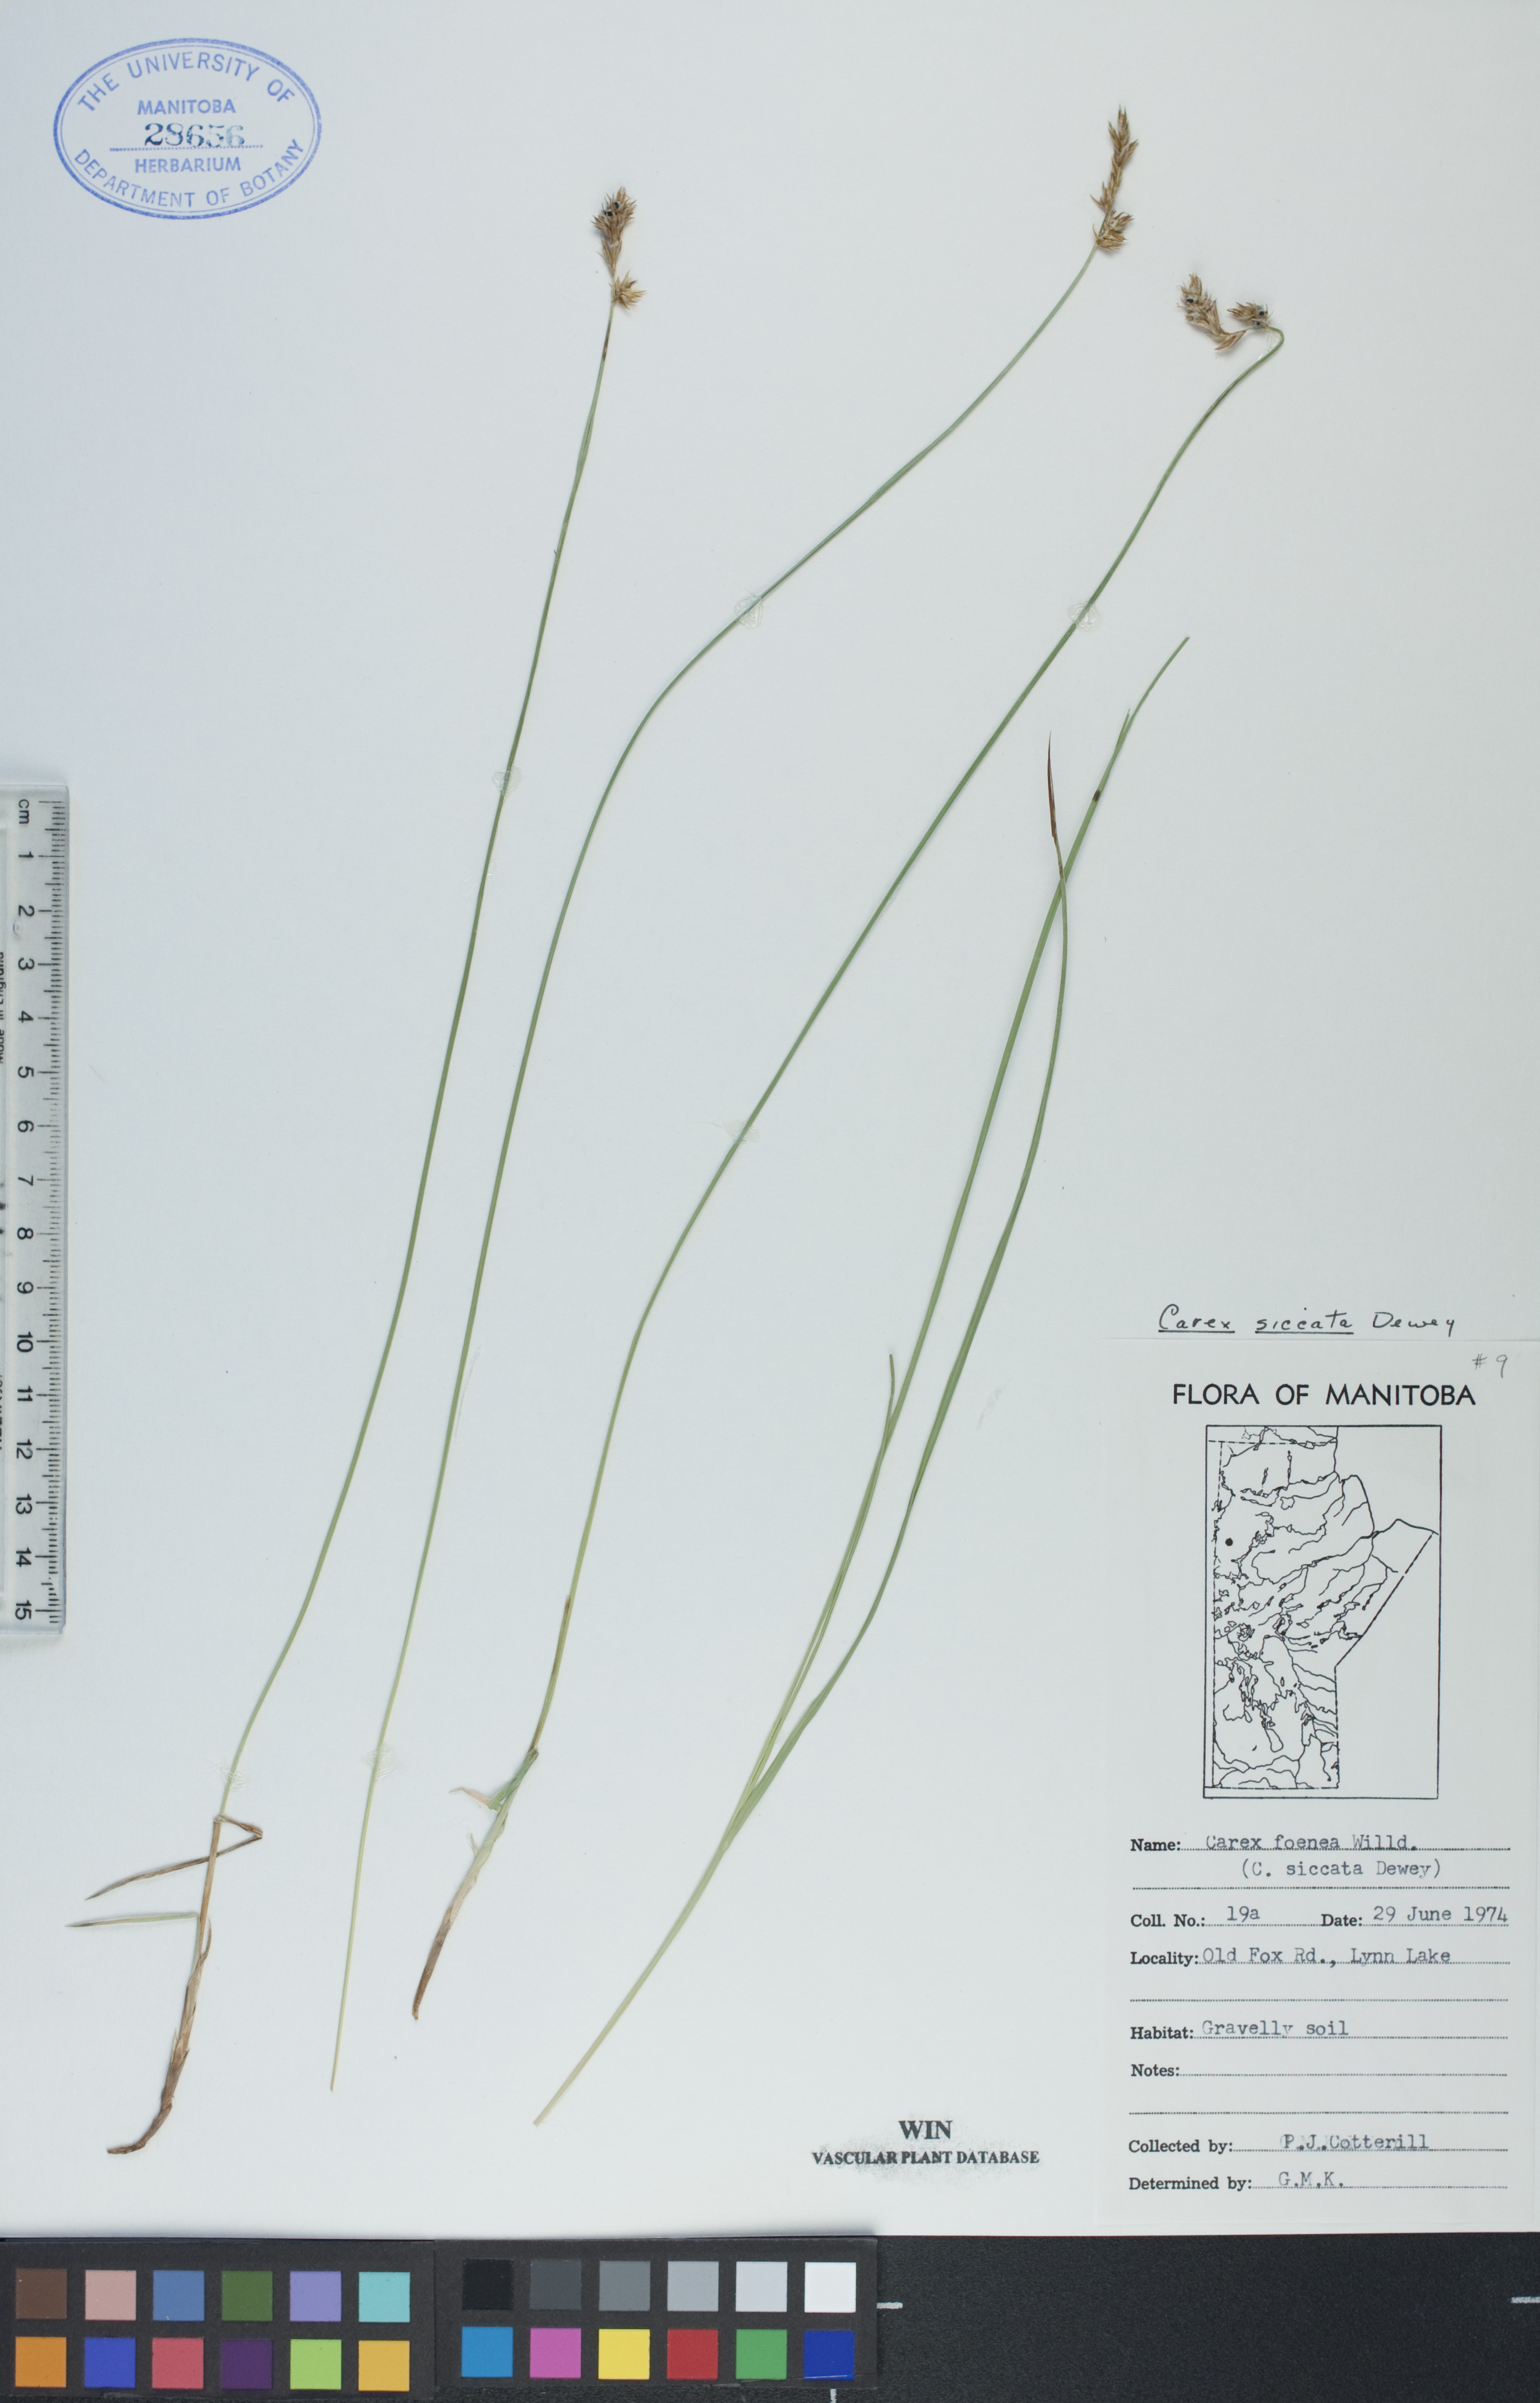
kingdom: Plantae
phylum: Tracheophyta
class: Liliopsida
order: Poales
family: Cyperaceae
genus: Carex
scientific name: Carex siccata
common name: Dry sedge
